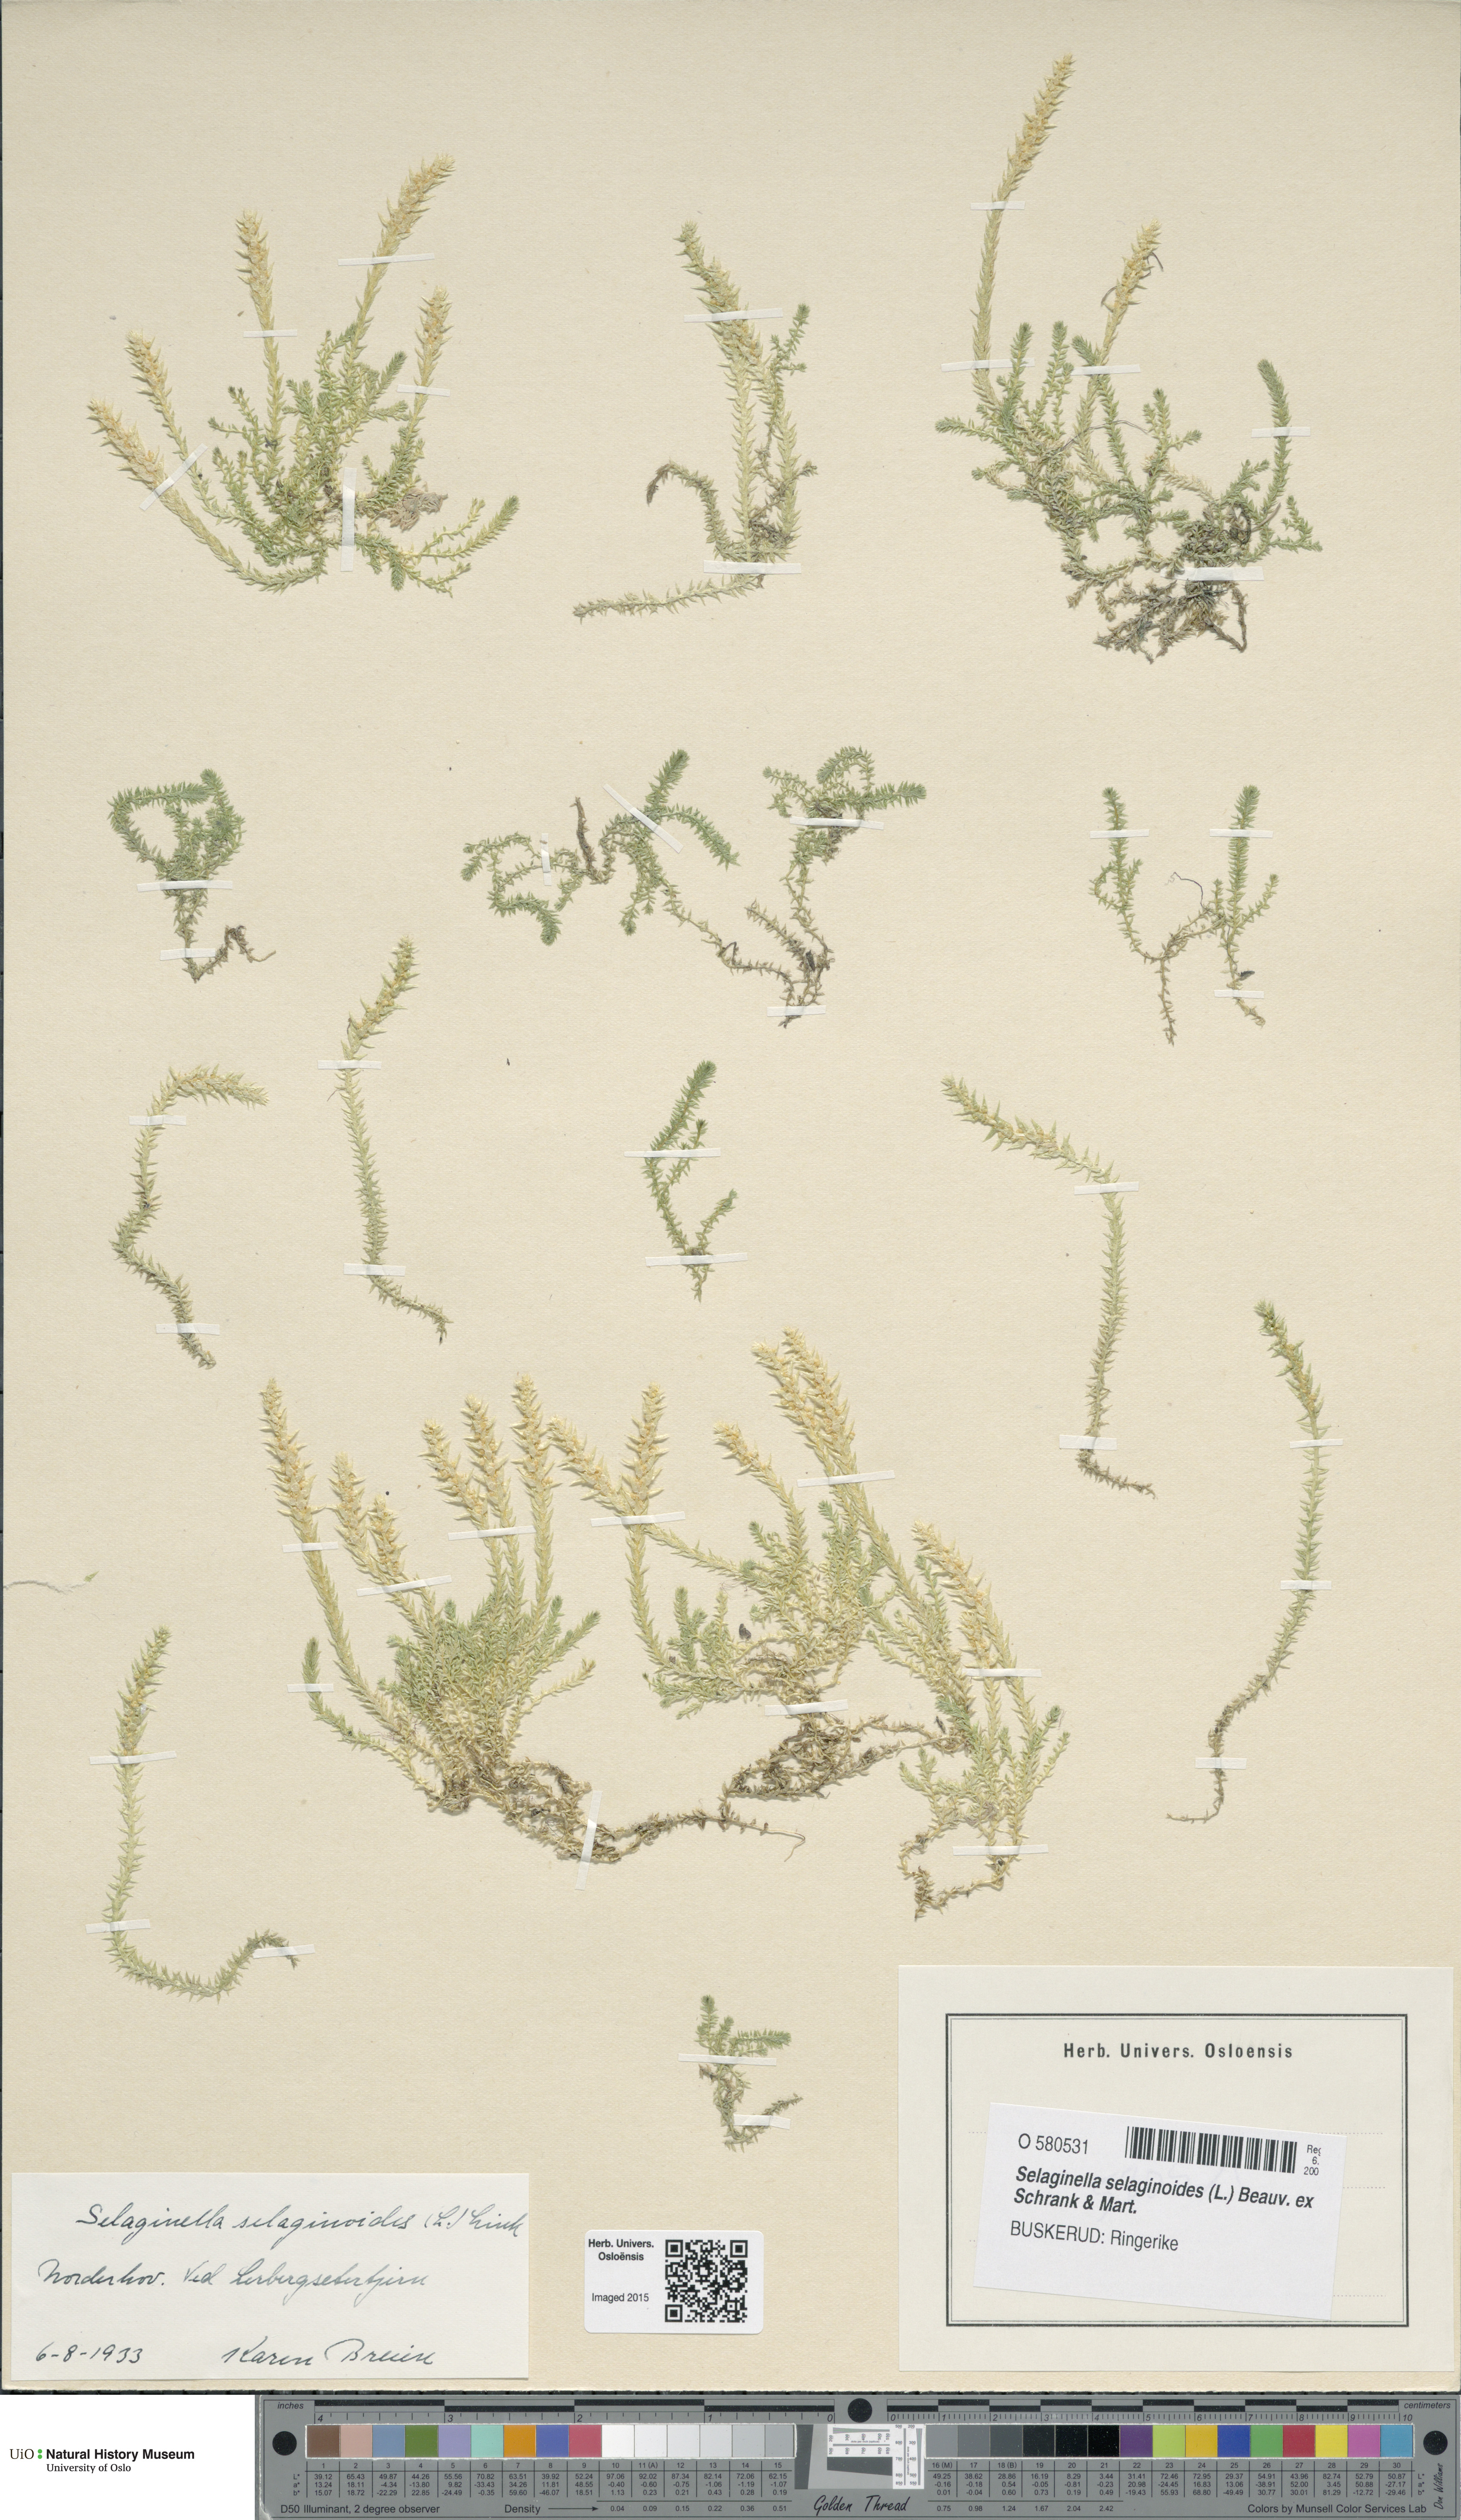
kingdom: Plantae
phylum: Tracheophyta
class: Lycopodiopsida
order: Selaginellales
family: Selaginellaceae
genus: Selaginella
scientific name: Selaginella selaginoides
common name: Prickly mountain-moss
